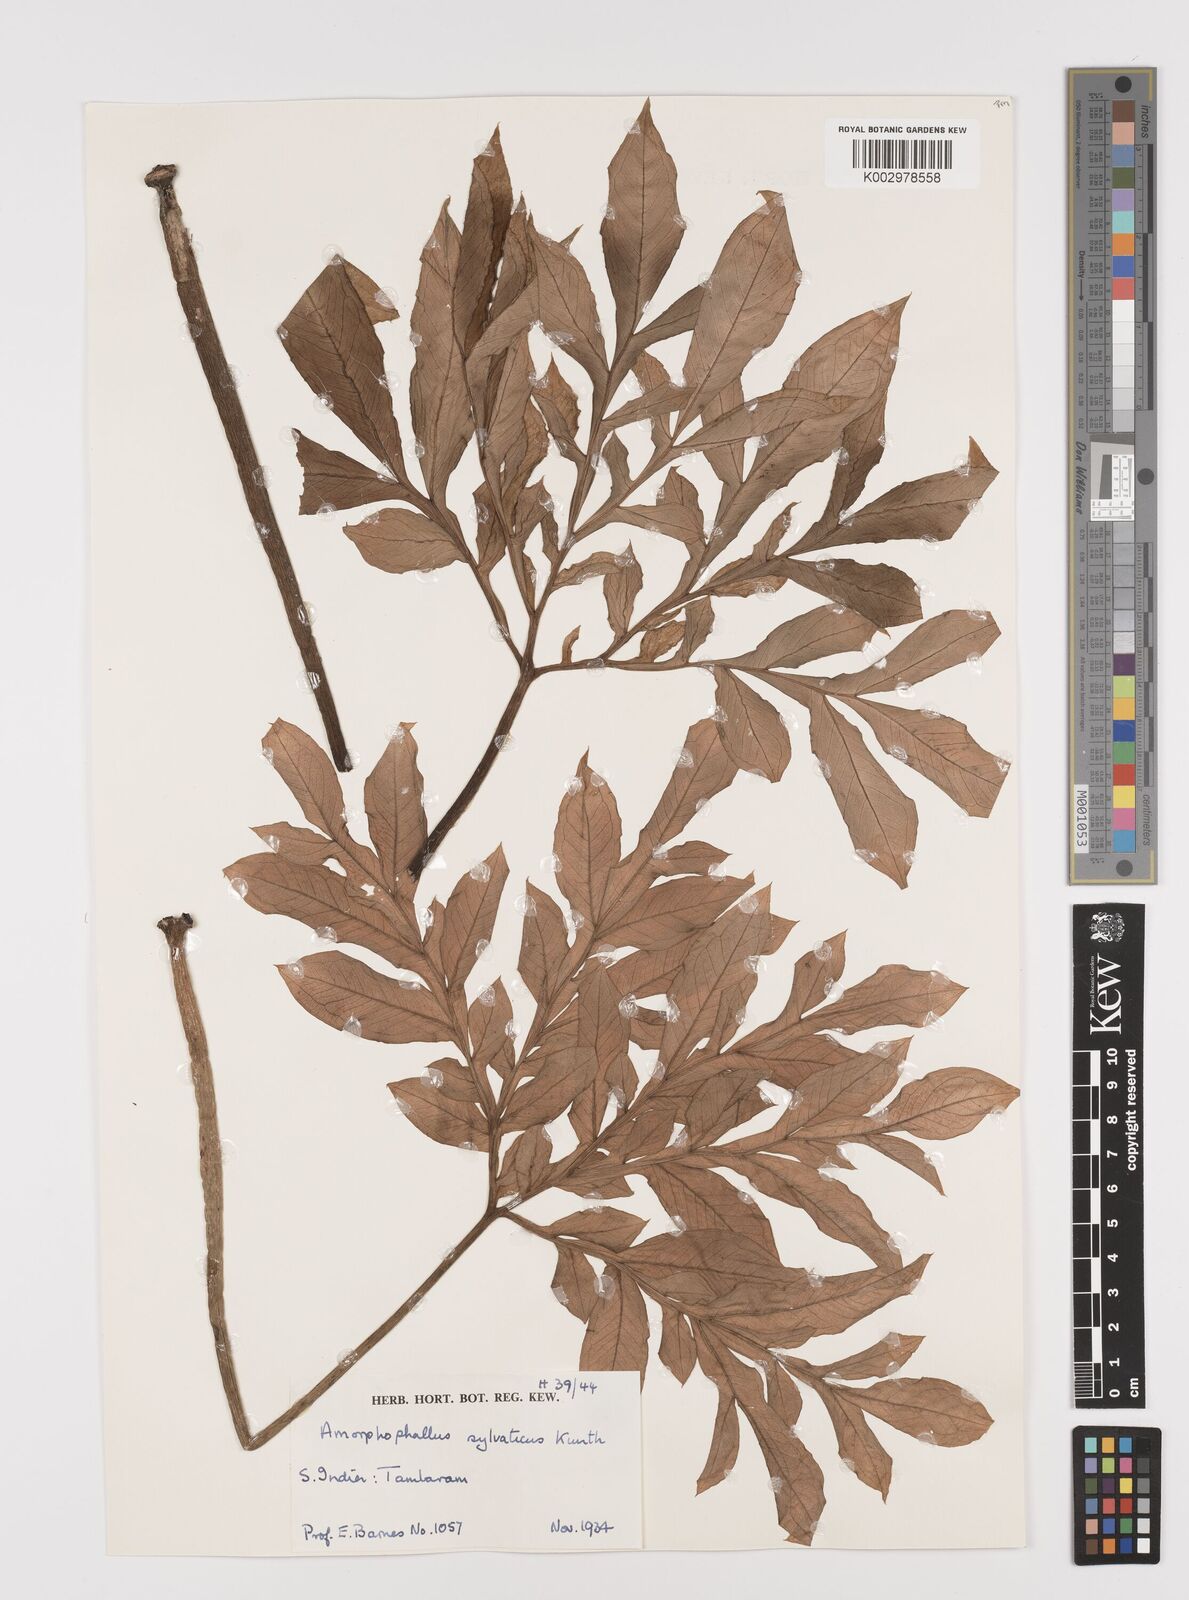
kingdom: Plantae
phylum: Tracheophyta
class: Liliopsida
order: Alismatales
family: Araceae
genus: Amorphophallus
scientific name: Amorphophallus sylvaticus
